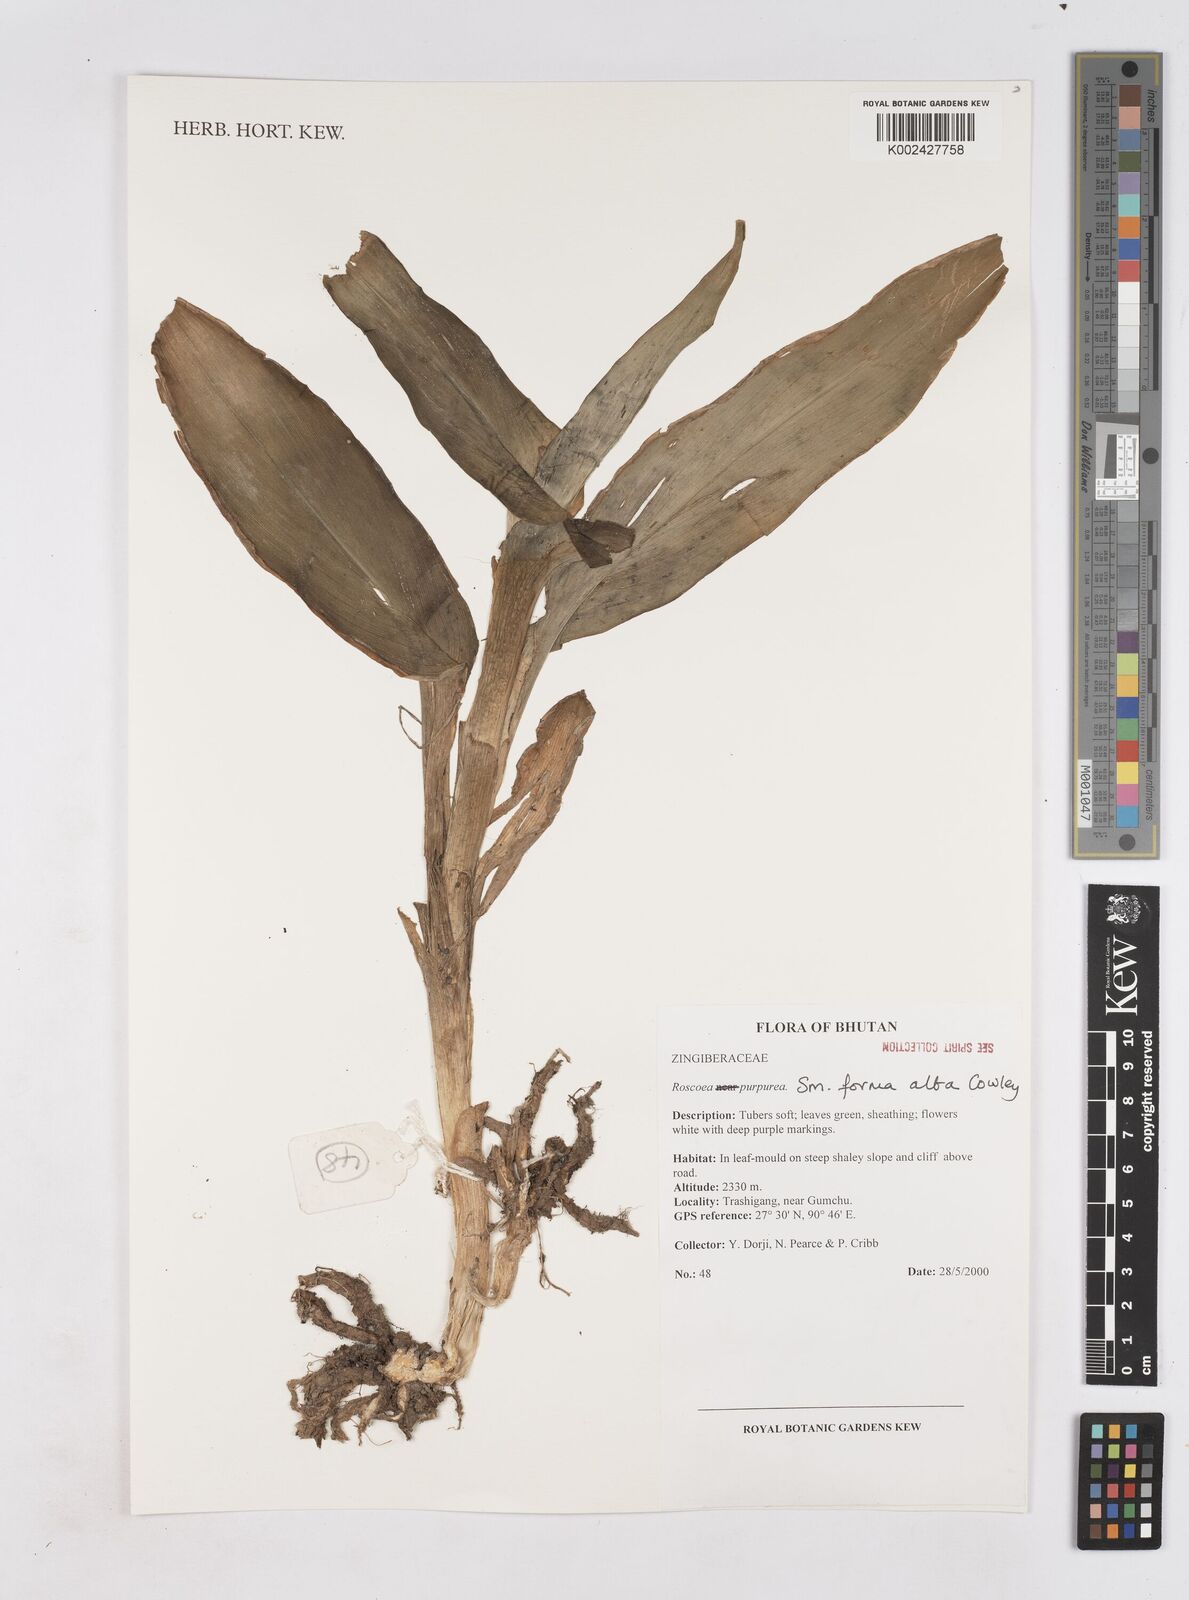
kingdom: Plantae
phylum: Tracheophyta
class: Liliopsida
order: Zingiberales
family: Zingiberaceae
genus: Roscoea
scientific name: Roscoea megalantha
